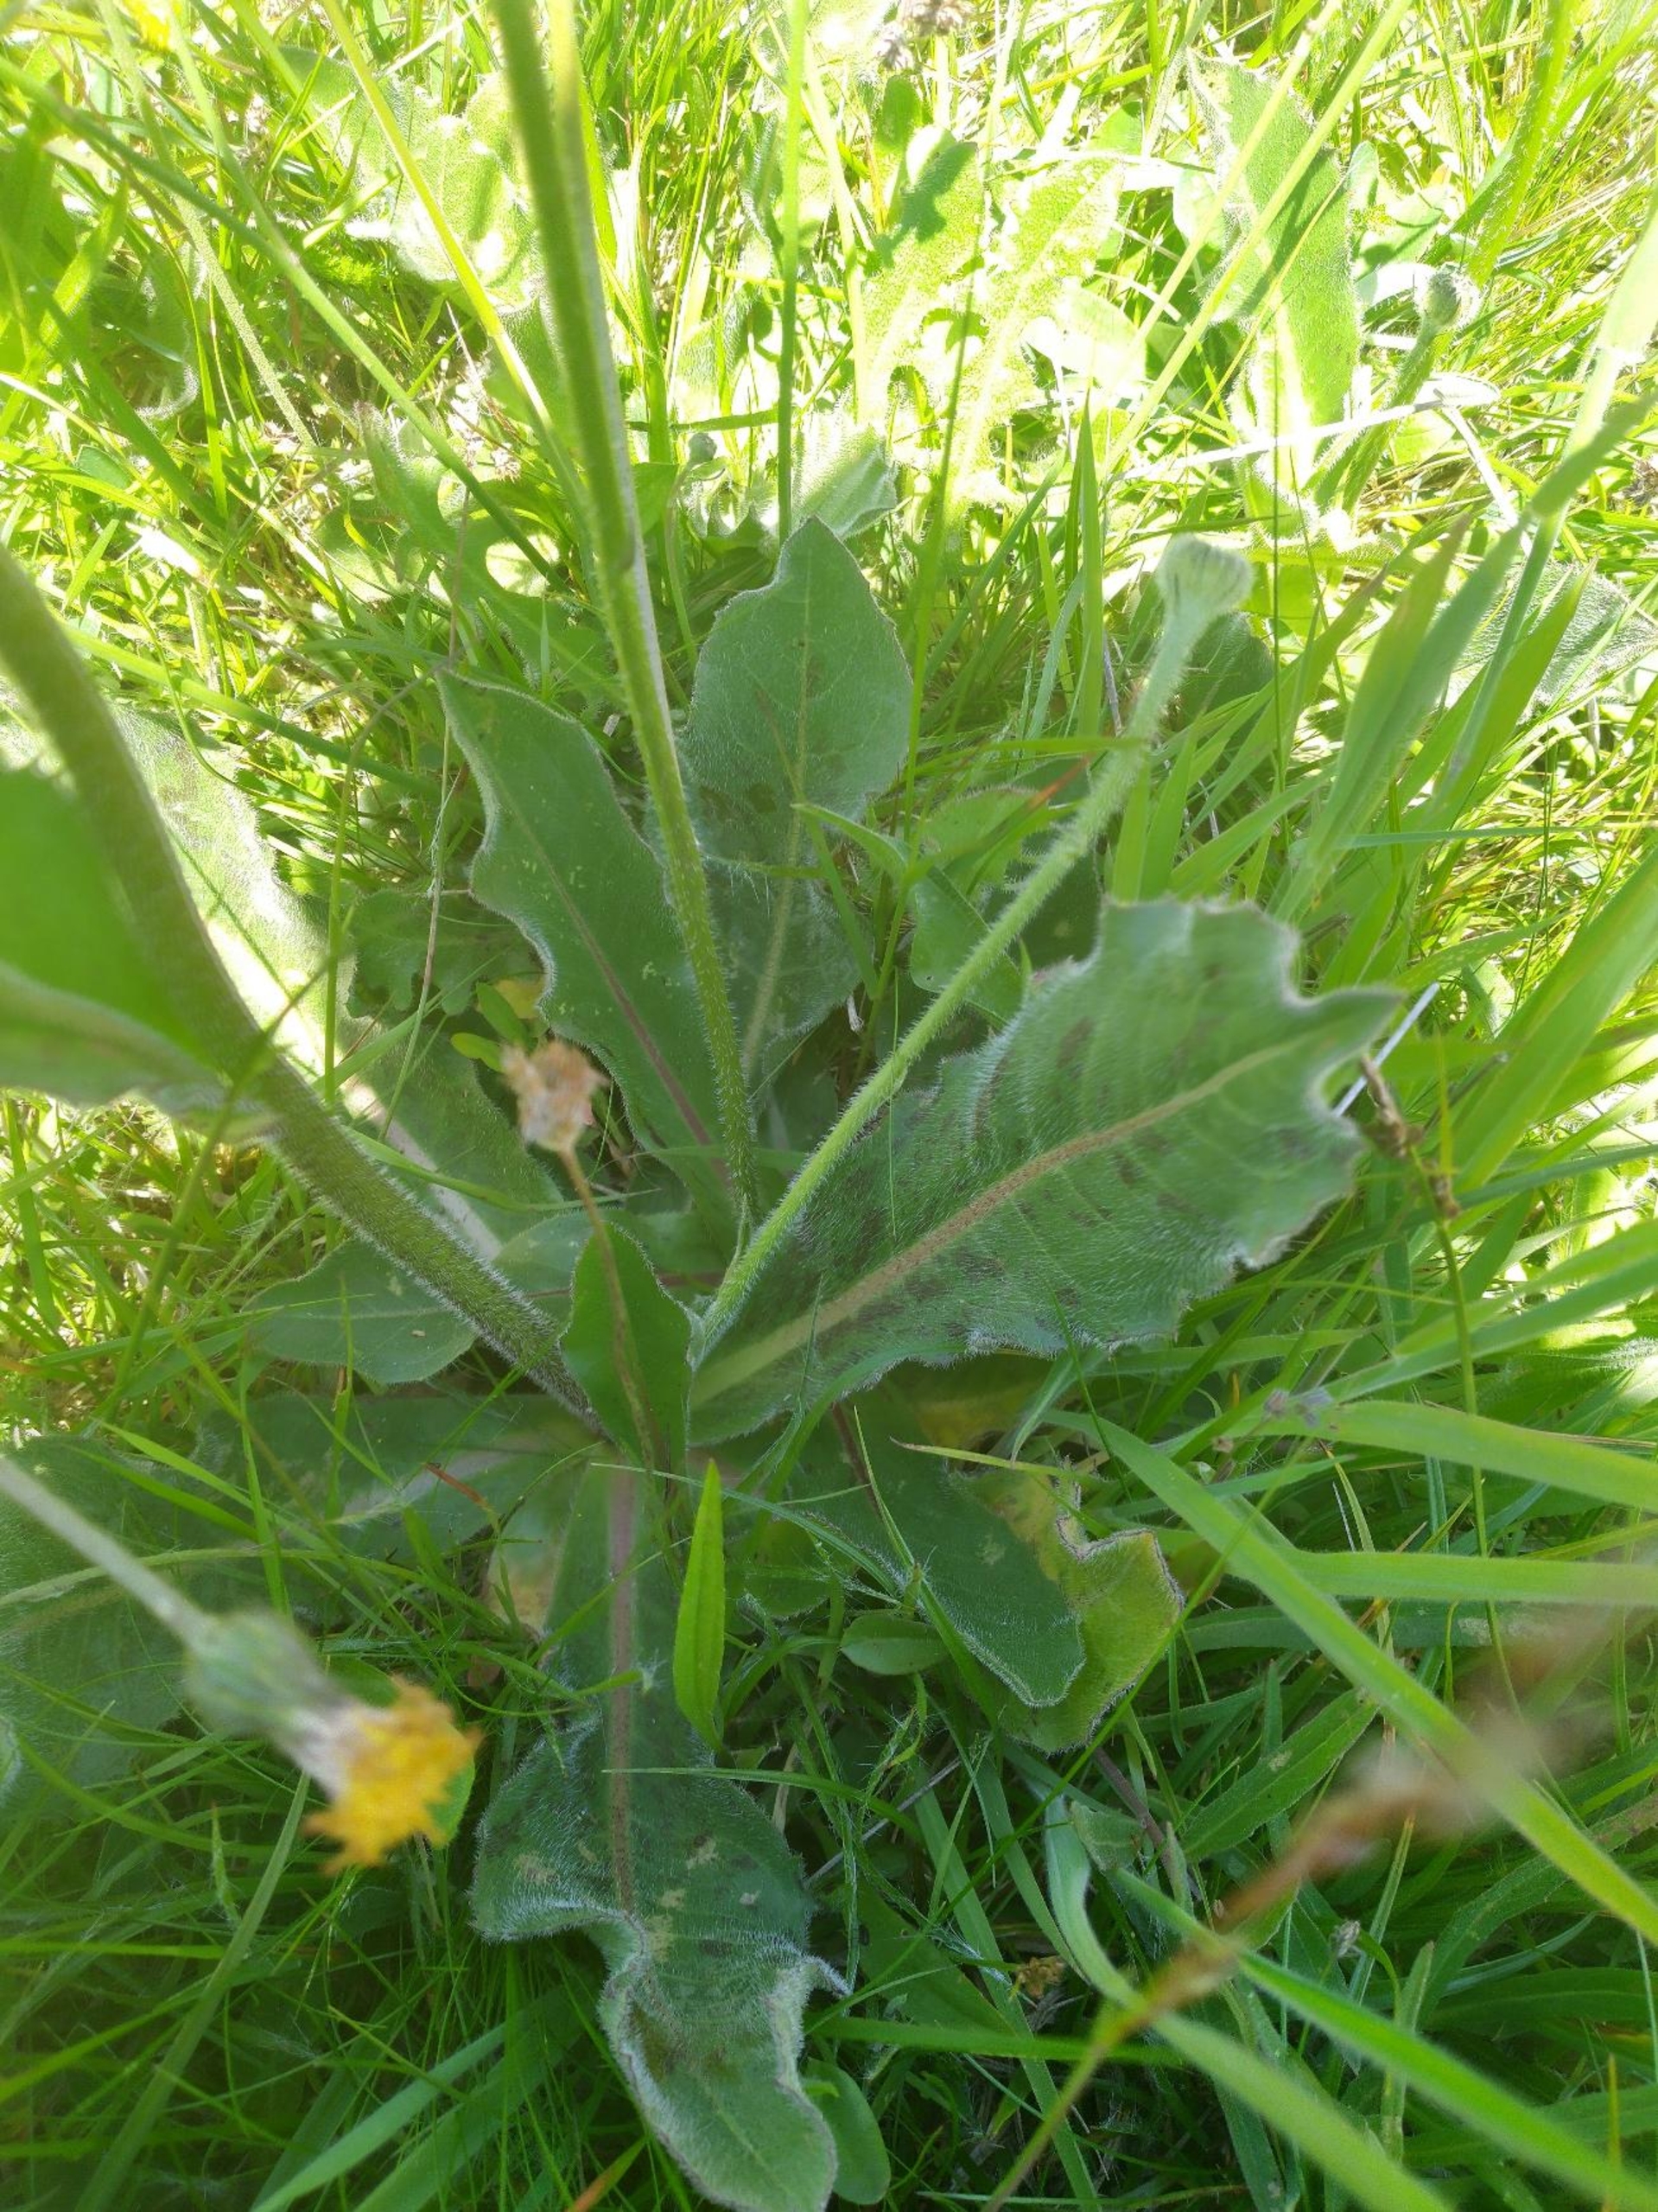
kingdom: Plantae
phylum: Tracheophyta
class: Magnoliopsida
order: Asterales
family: Asteraceae
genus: Trommsdorffia
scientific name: Trommsdorffia maculata
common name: Plettet kongepen
